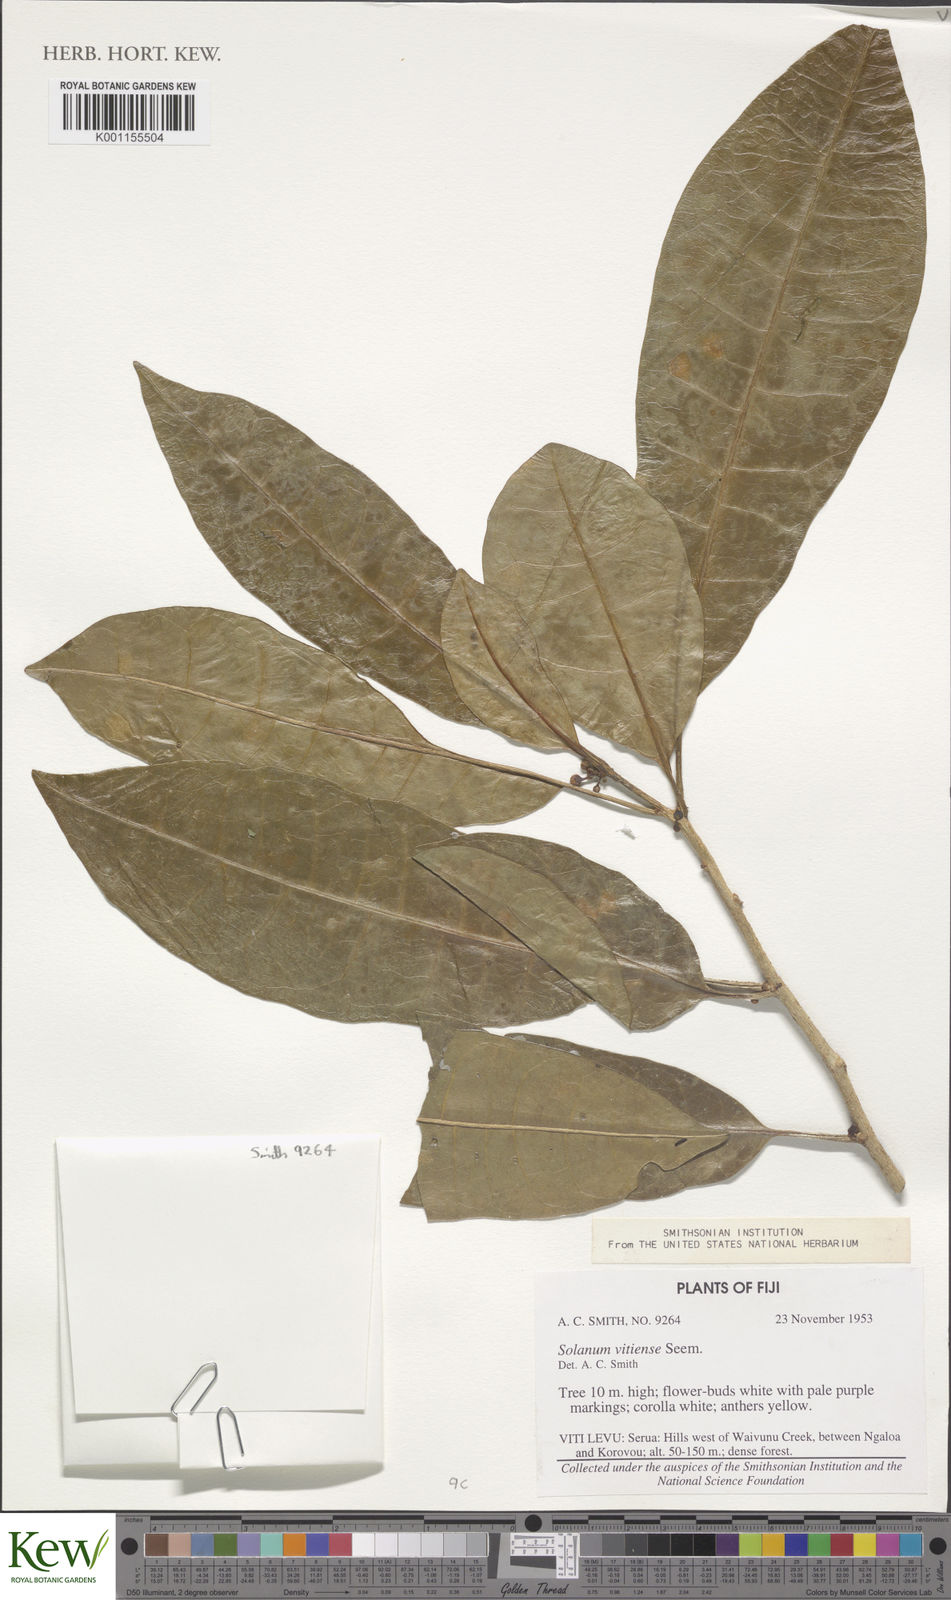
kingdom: Plantae
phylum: Tracheophyta
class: Magnoliopsida
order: Solanales
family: Solanaceae
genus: Lycianthes
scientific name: Lycianthes vitiensis
